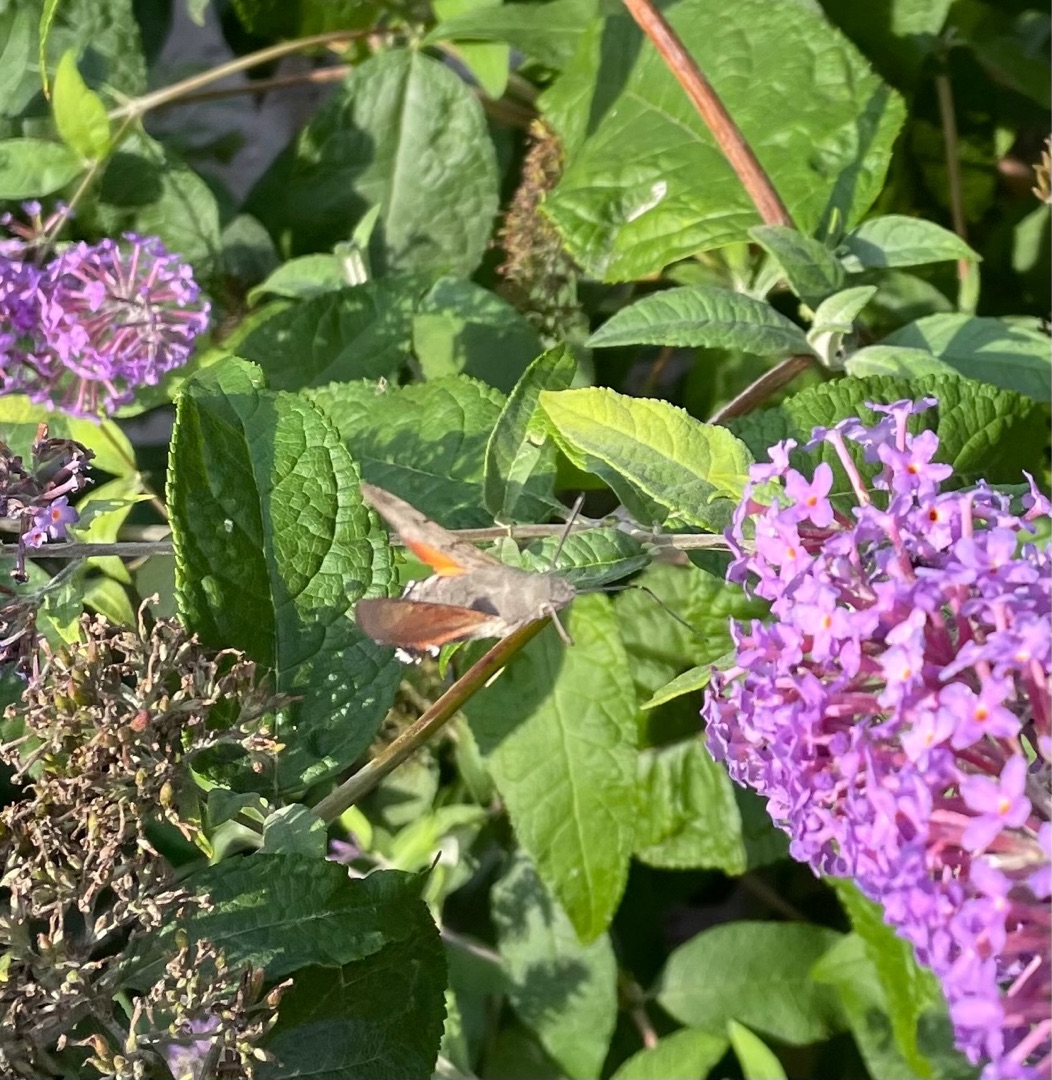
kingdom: Animalia
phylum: Arthropoda
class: Insecta
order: Lepidoptera
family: Sphingidae
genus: Macroglossum
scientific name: Macroglossum stellatarum
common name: Duehale
